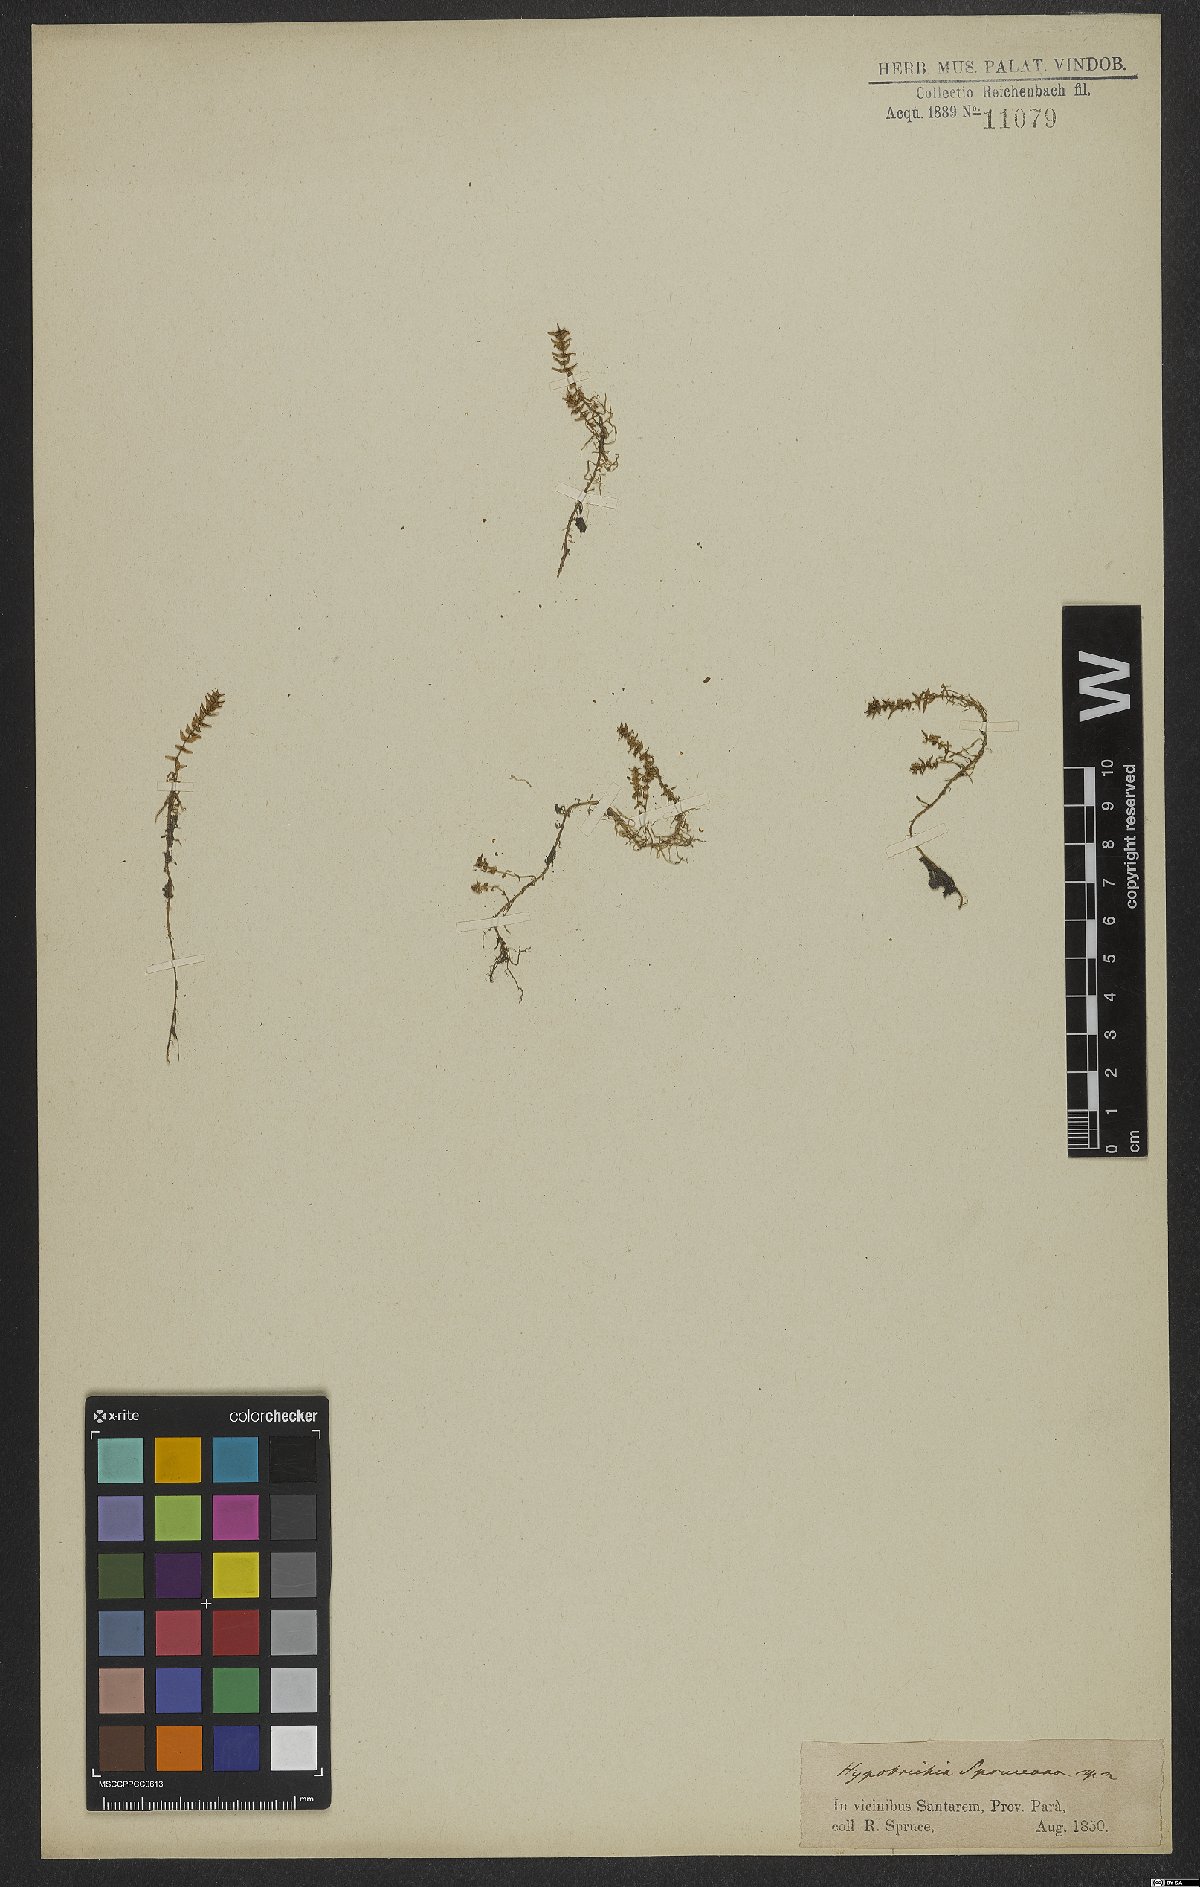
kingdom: Plantae
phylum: Tracheophyta
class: Magnoliopsida
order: Myrtales
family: Lythraceae
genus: Rotala
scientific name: Rotala mexicana
